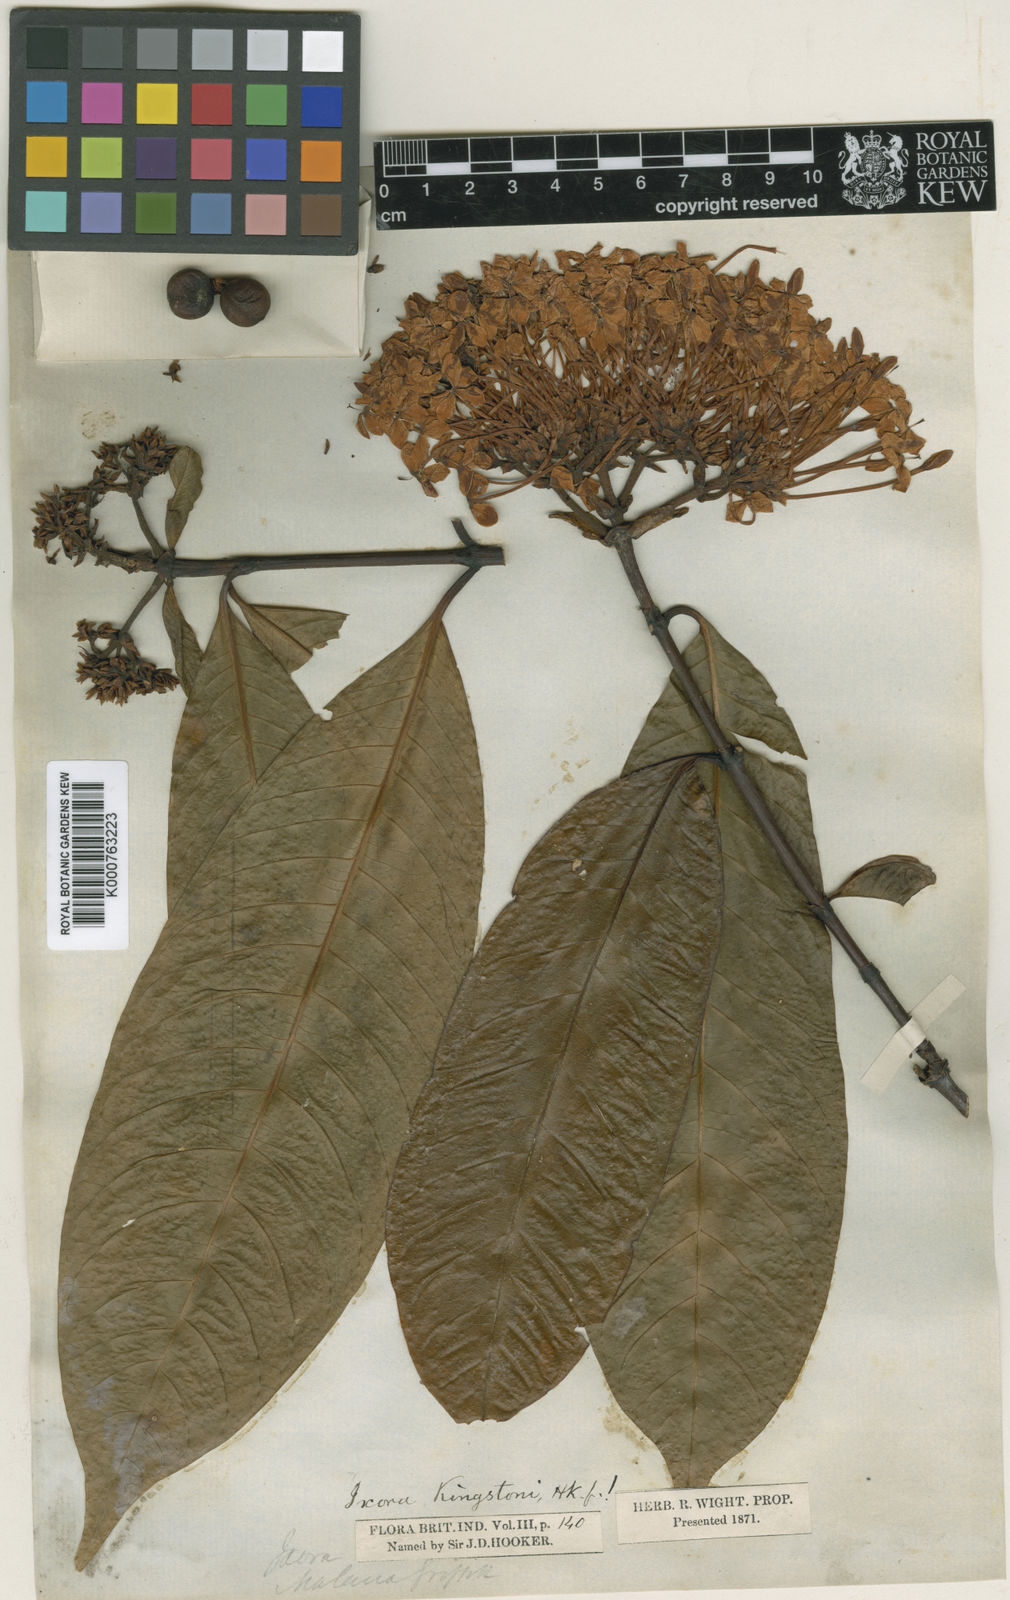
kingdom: Plantae
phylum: Tracheophyta
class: Magnoliopsida
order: Gentianales
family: Rubiaceae
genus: Ixora
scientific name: Ixora kingstoni
